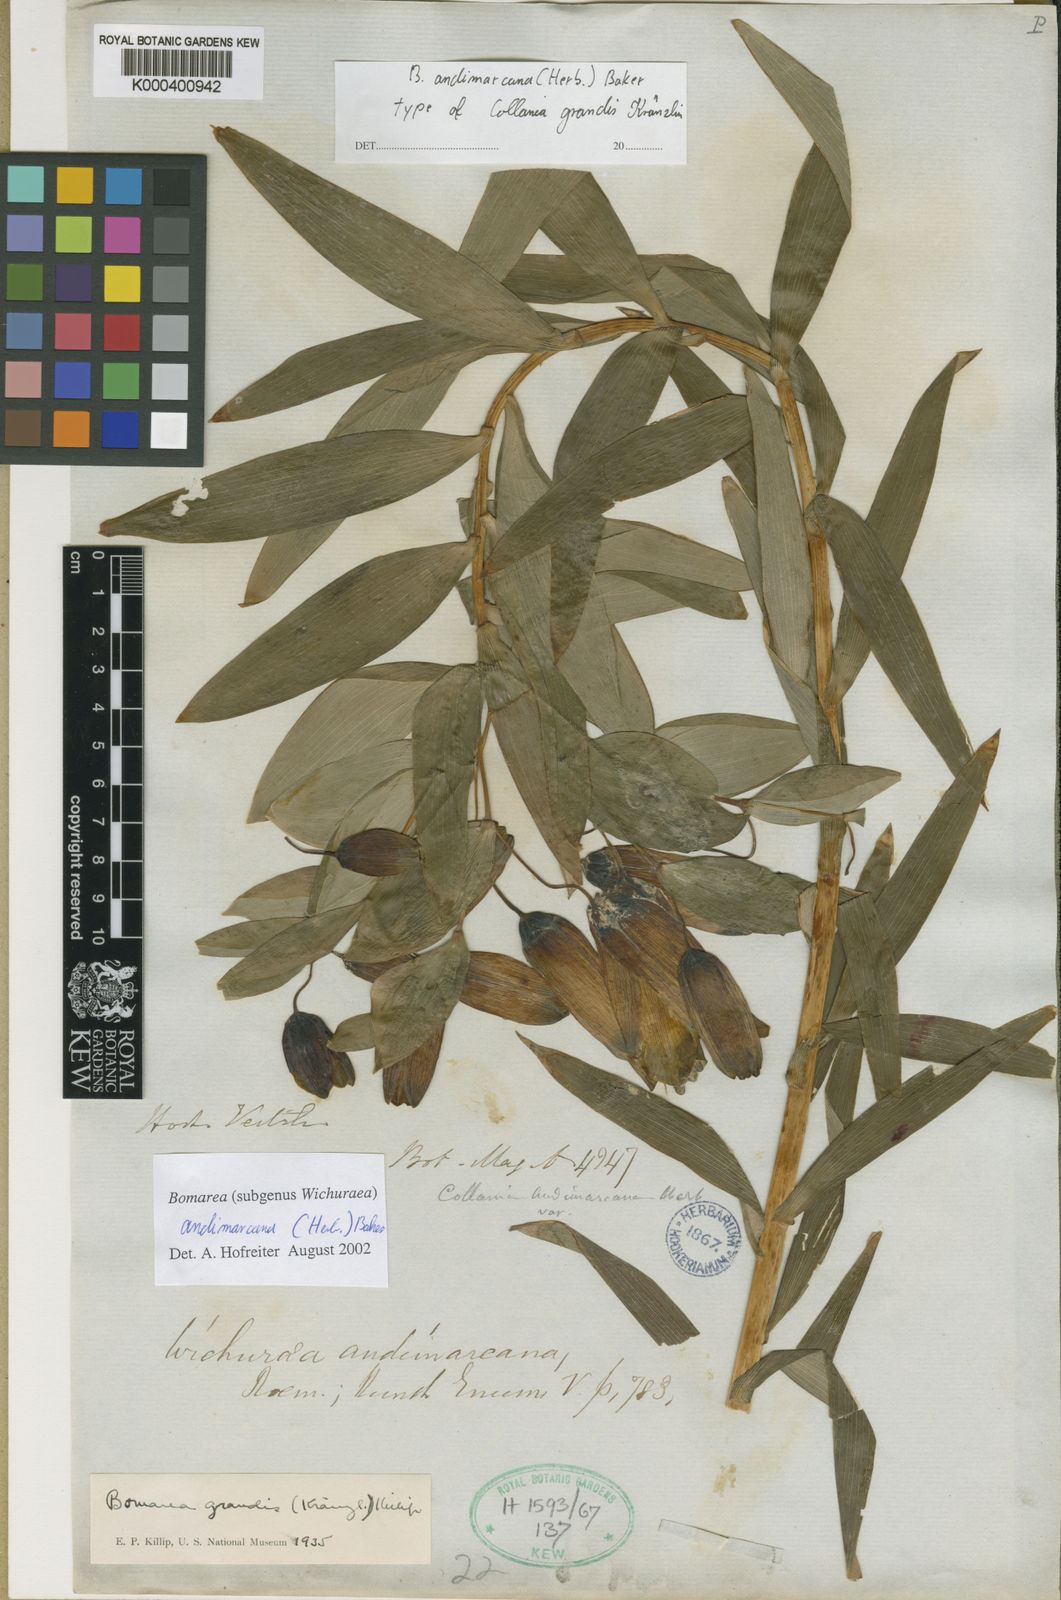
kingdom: Plantae
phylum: Tracheophyta
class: Liliopsida
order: Liliales
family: Alstroemeriaceae
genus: Bomarea
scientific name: Bomarea andimarcana
